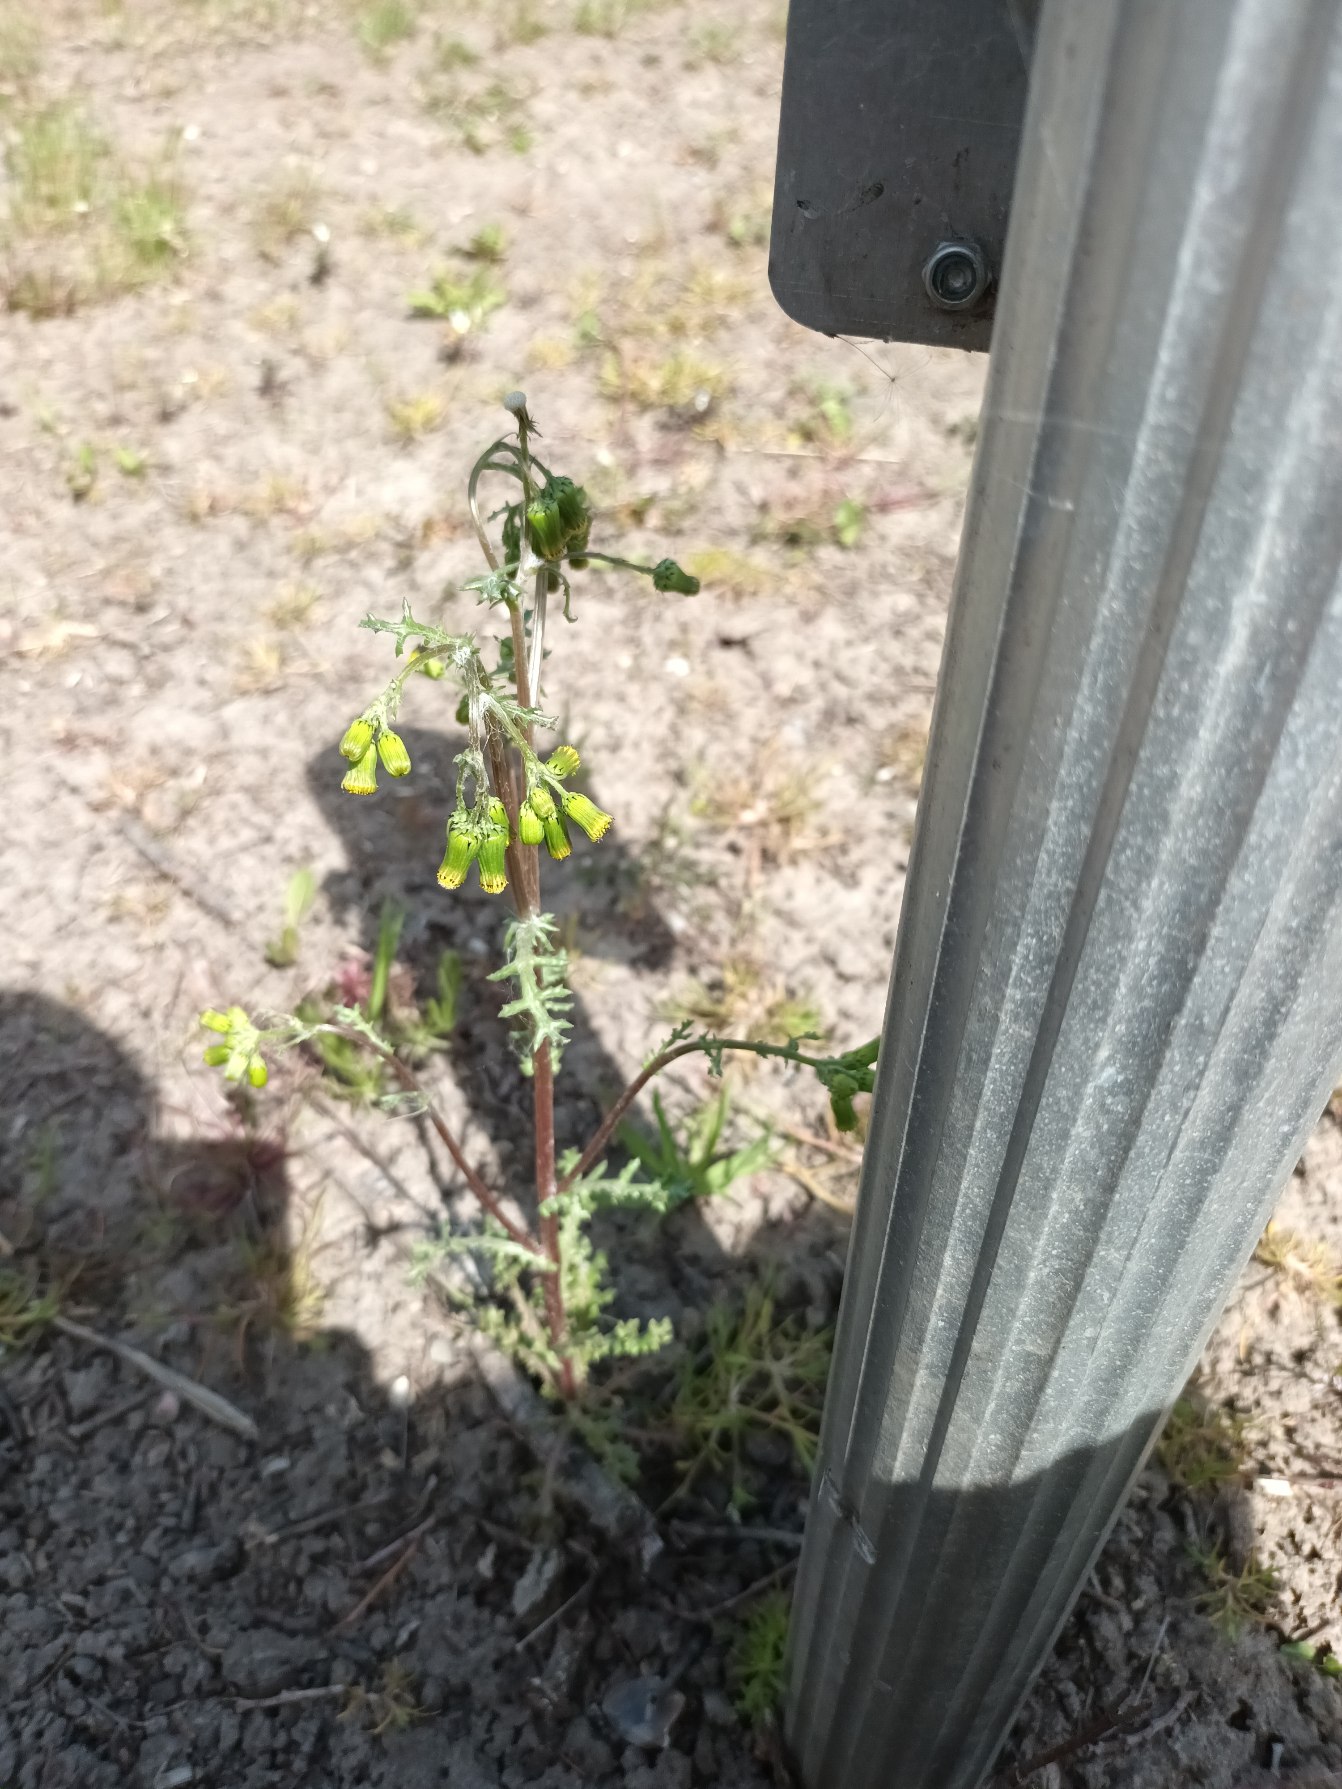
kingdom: Plantae
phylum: Tracheophyta
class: Magnoliopsida
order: Asterales
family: Asteraceae
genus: Senecio
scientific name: Senecio vulgaris
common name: Almindelig brandbæger
